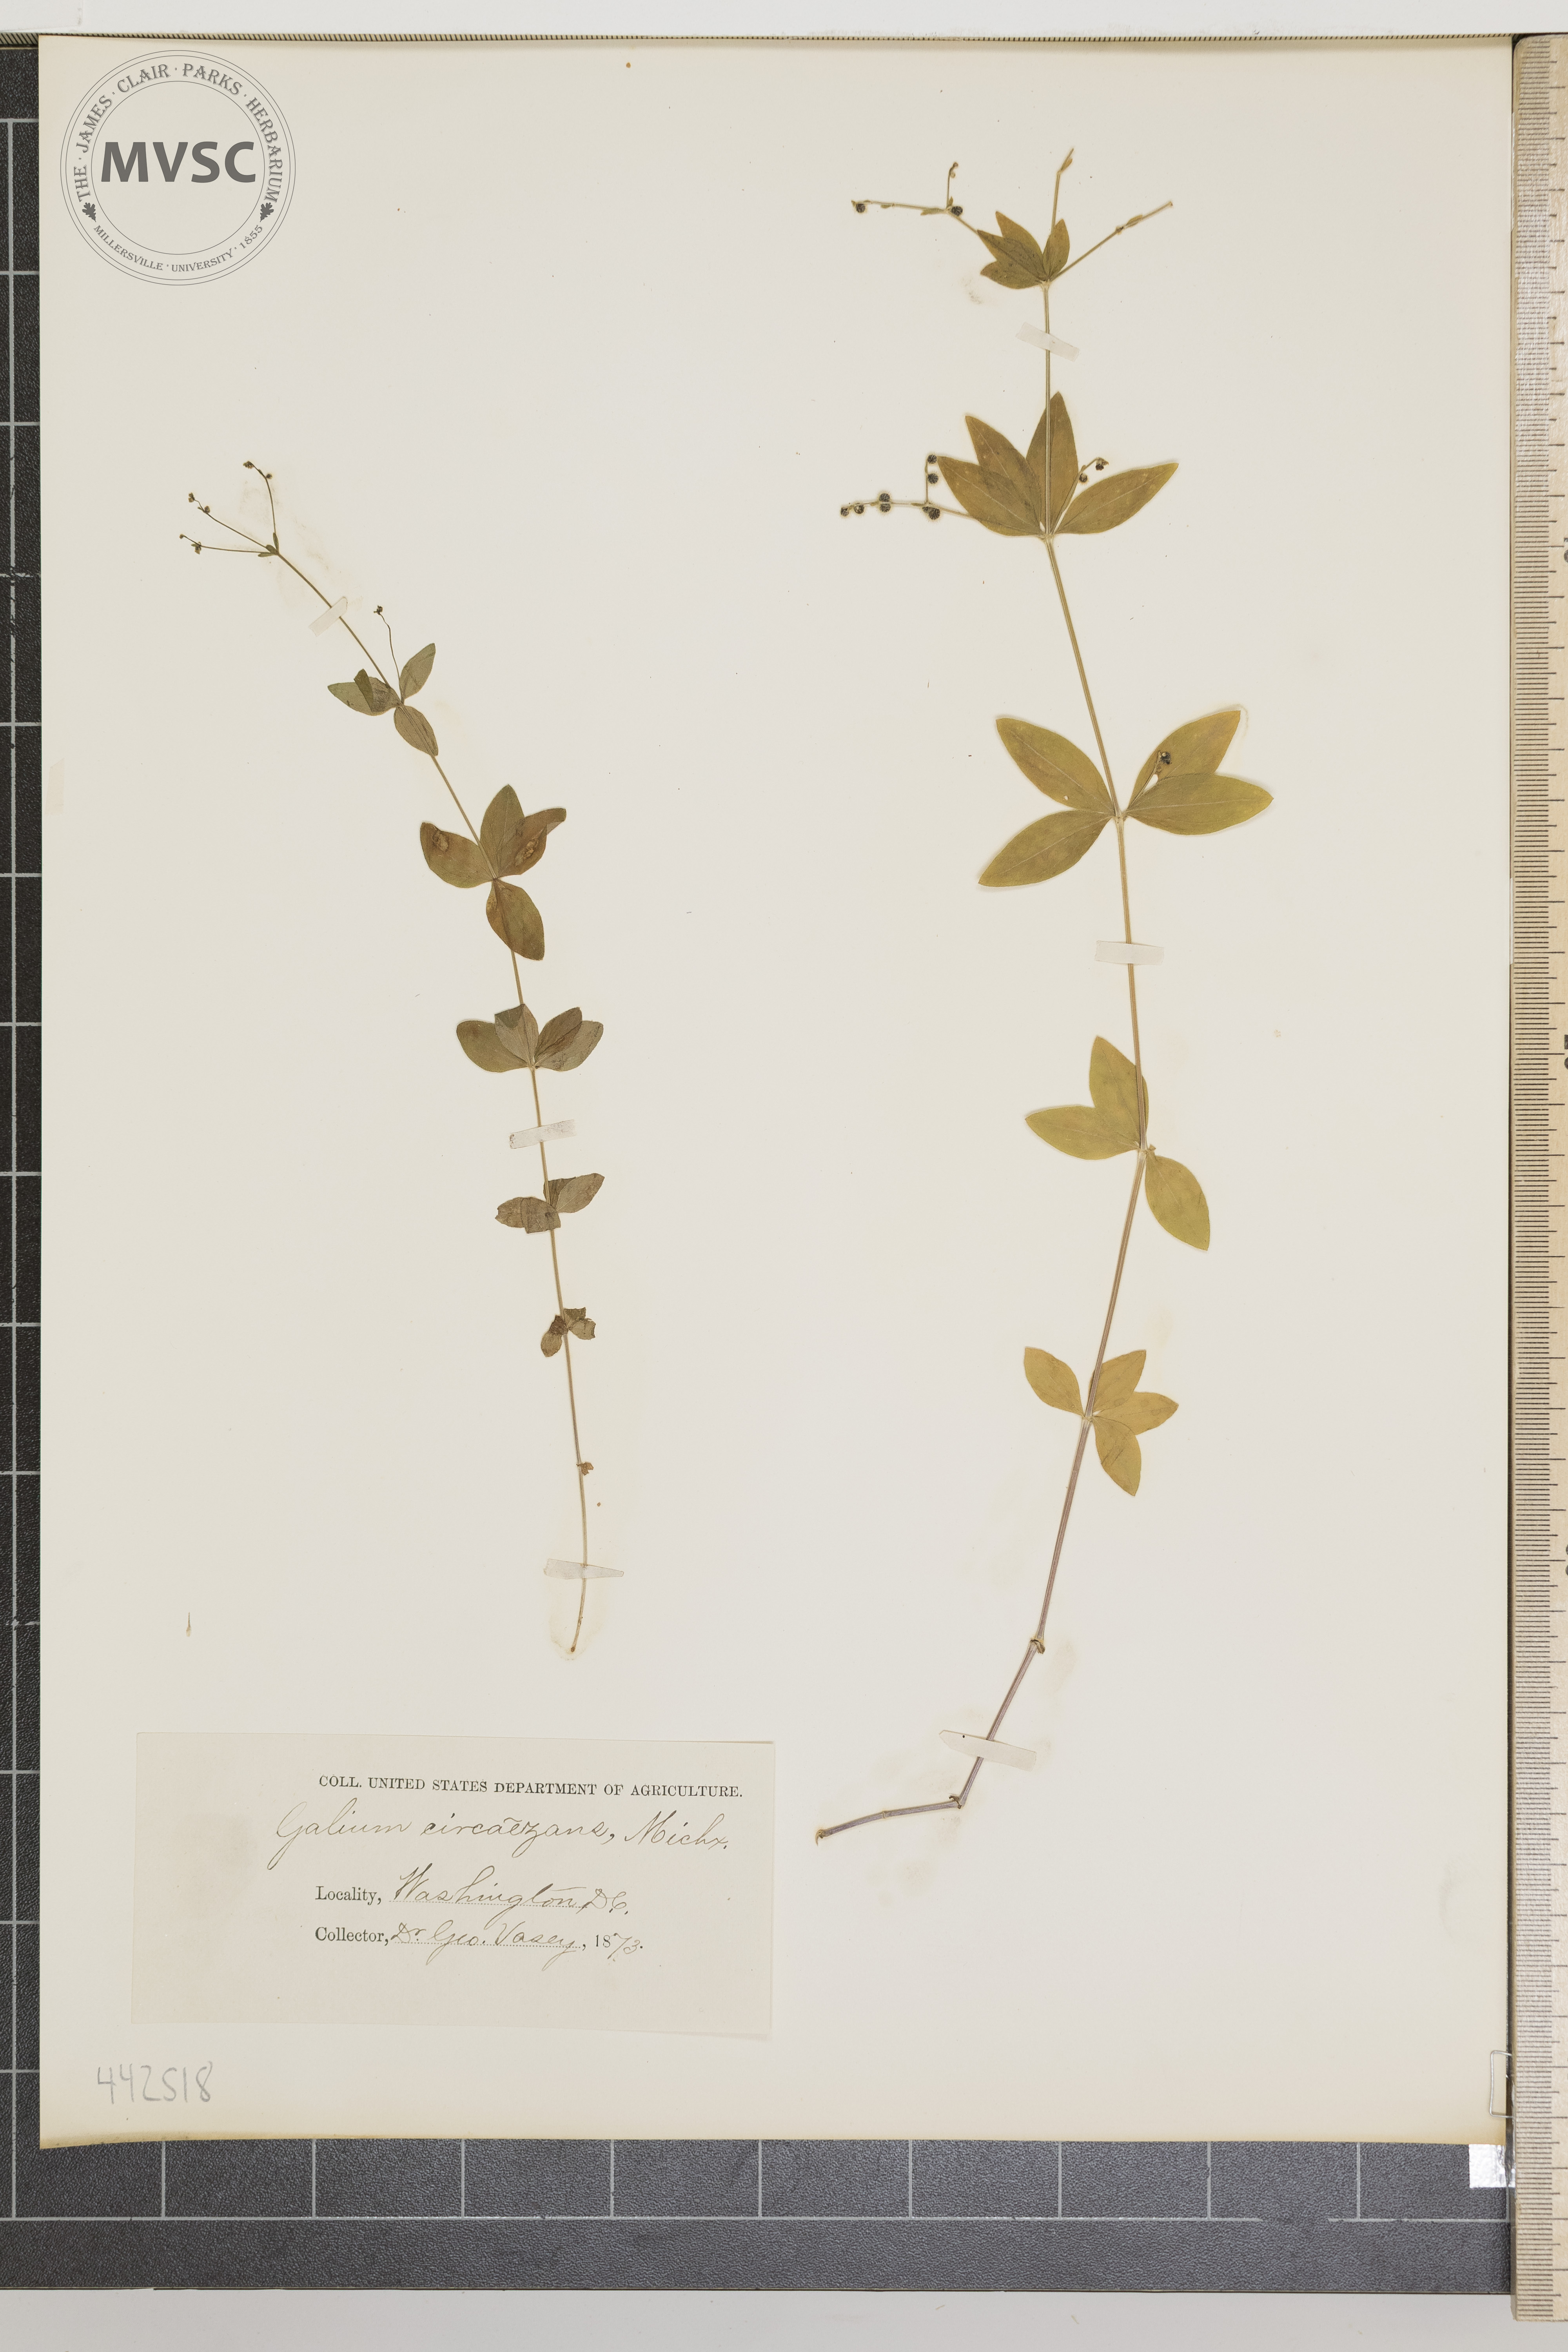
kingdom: Plantae
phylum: Tracheophyta
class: Magnoliopsida
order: Gentianales
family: Rubiaceae
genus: Galium
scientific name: Galium circaezans
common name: Forest bedstraw
